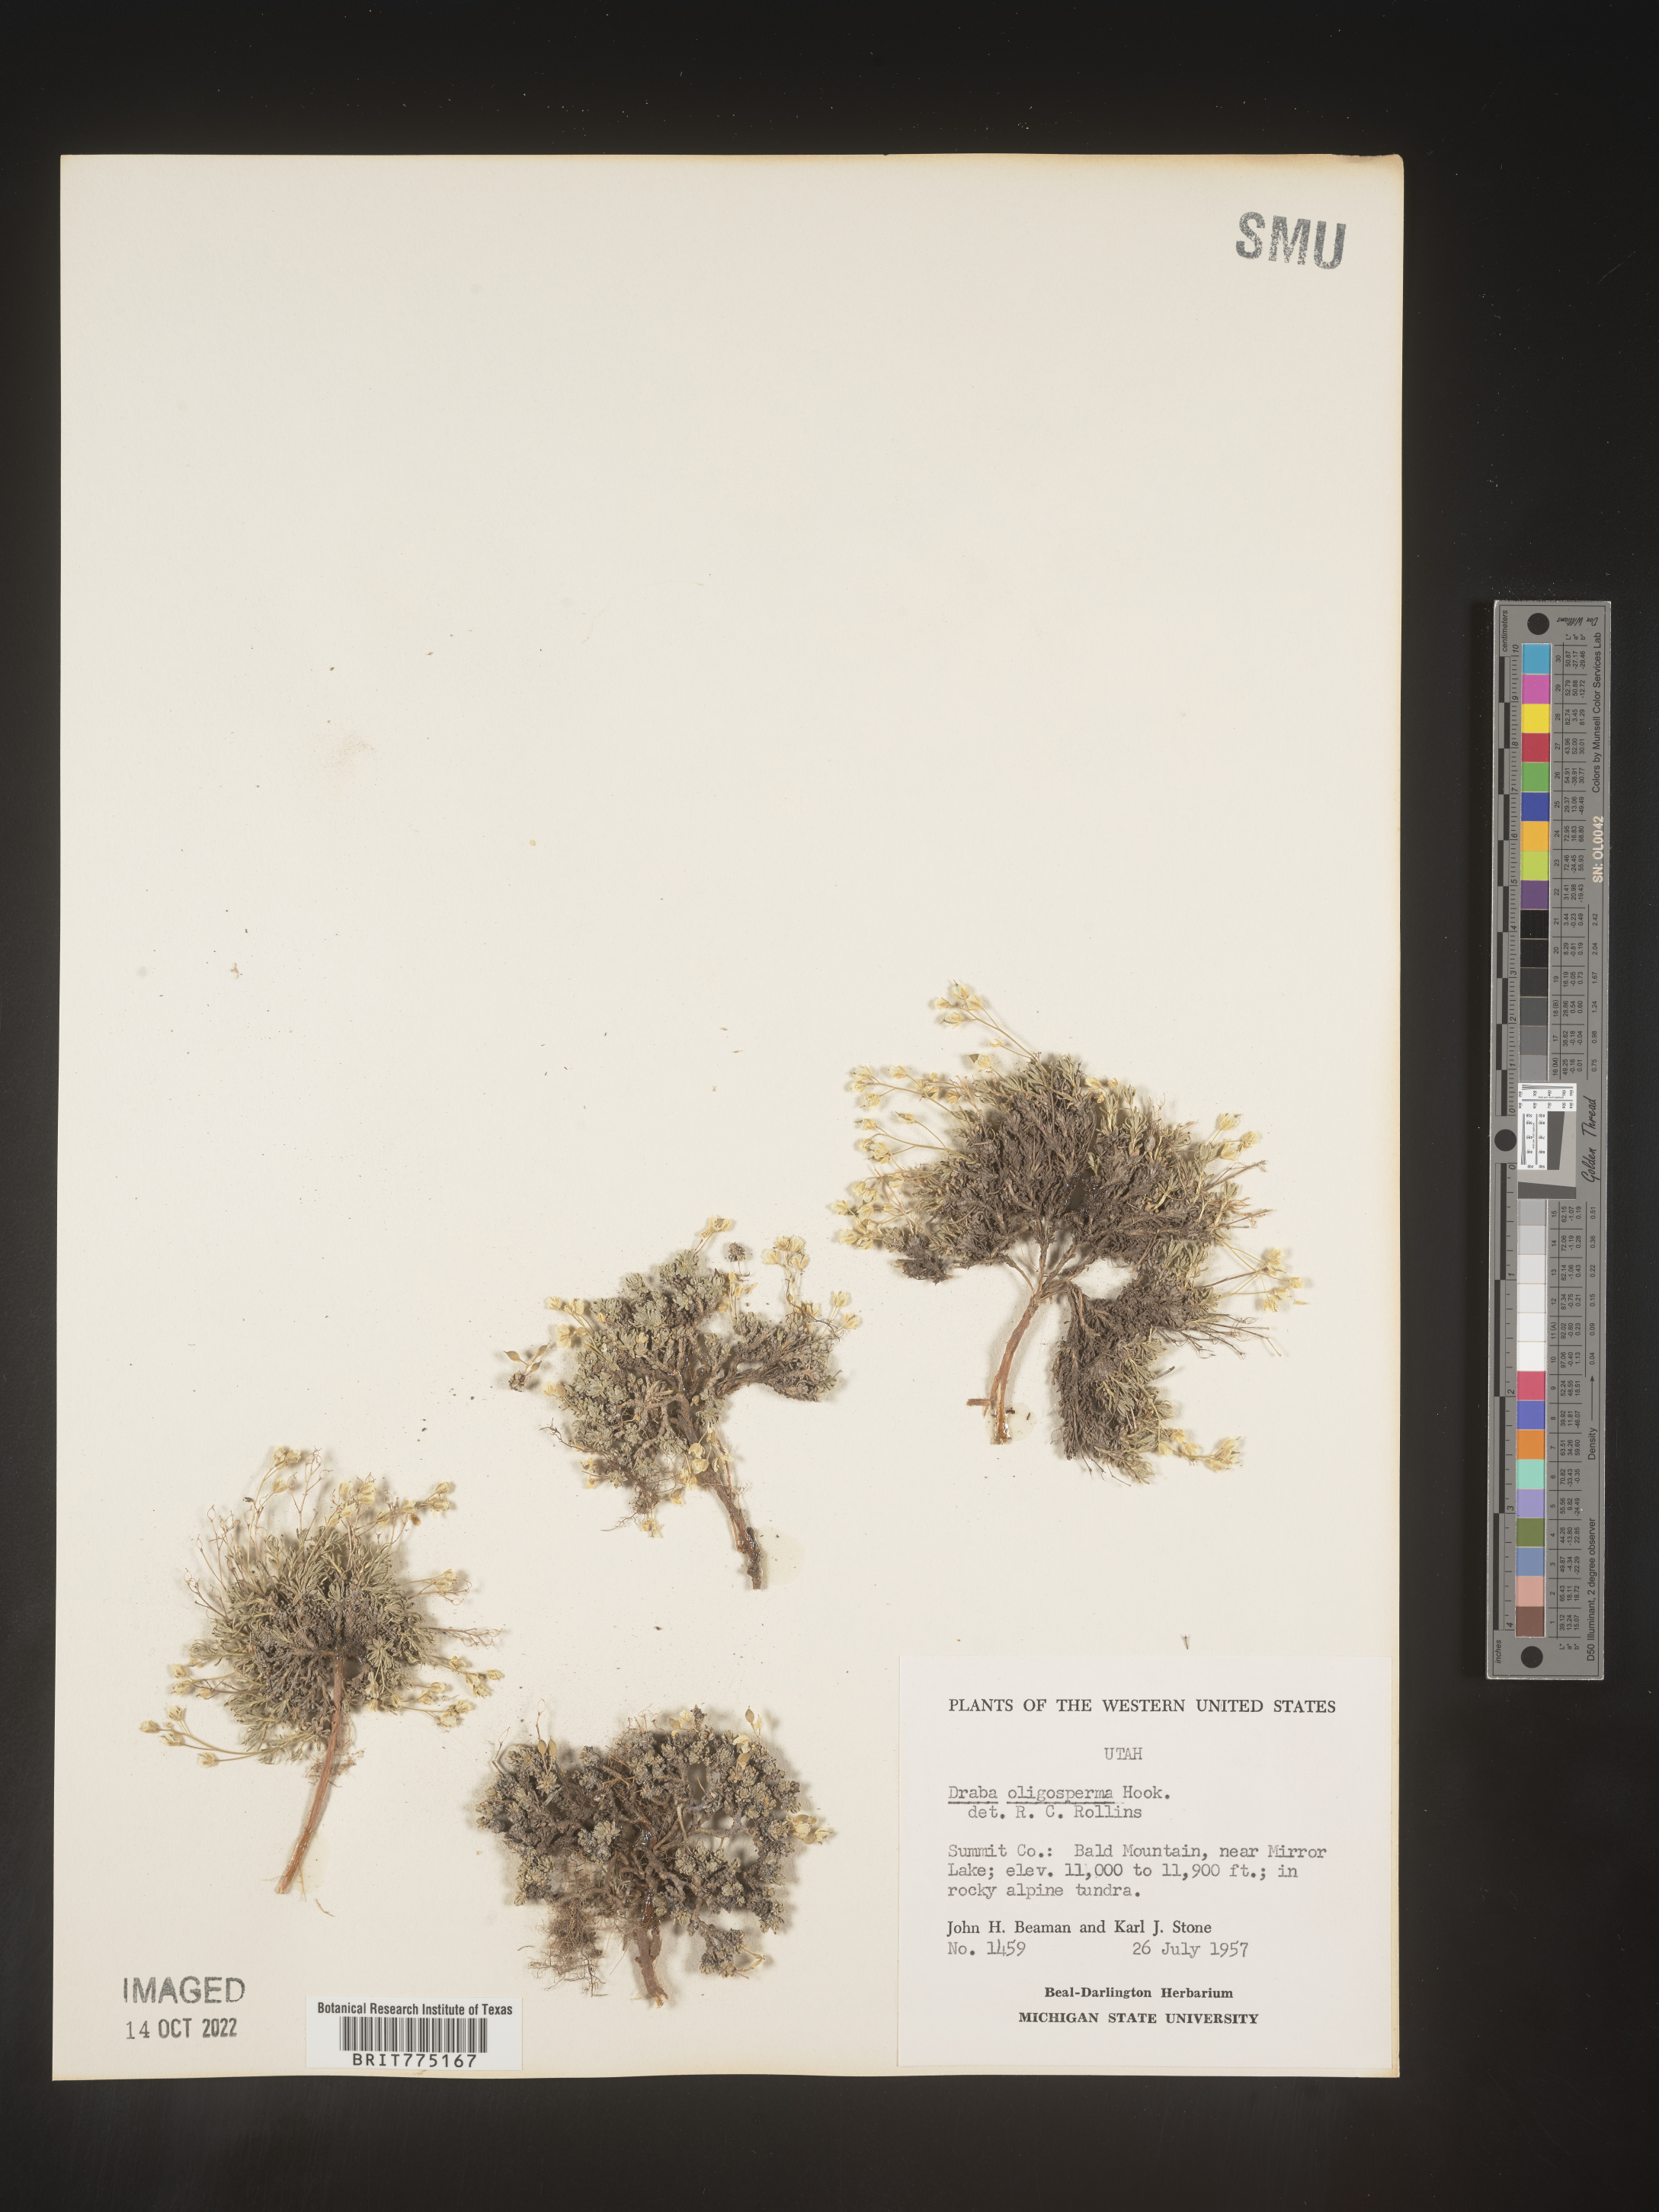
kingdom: Plantae
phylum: Tracheophyta
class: Magnoliopsida
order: Brassicales
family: Brassicaceae
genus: Draba
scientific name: Draba
